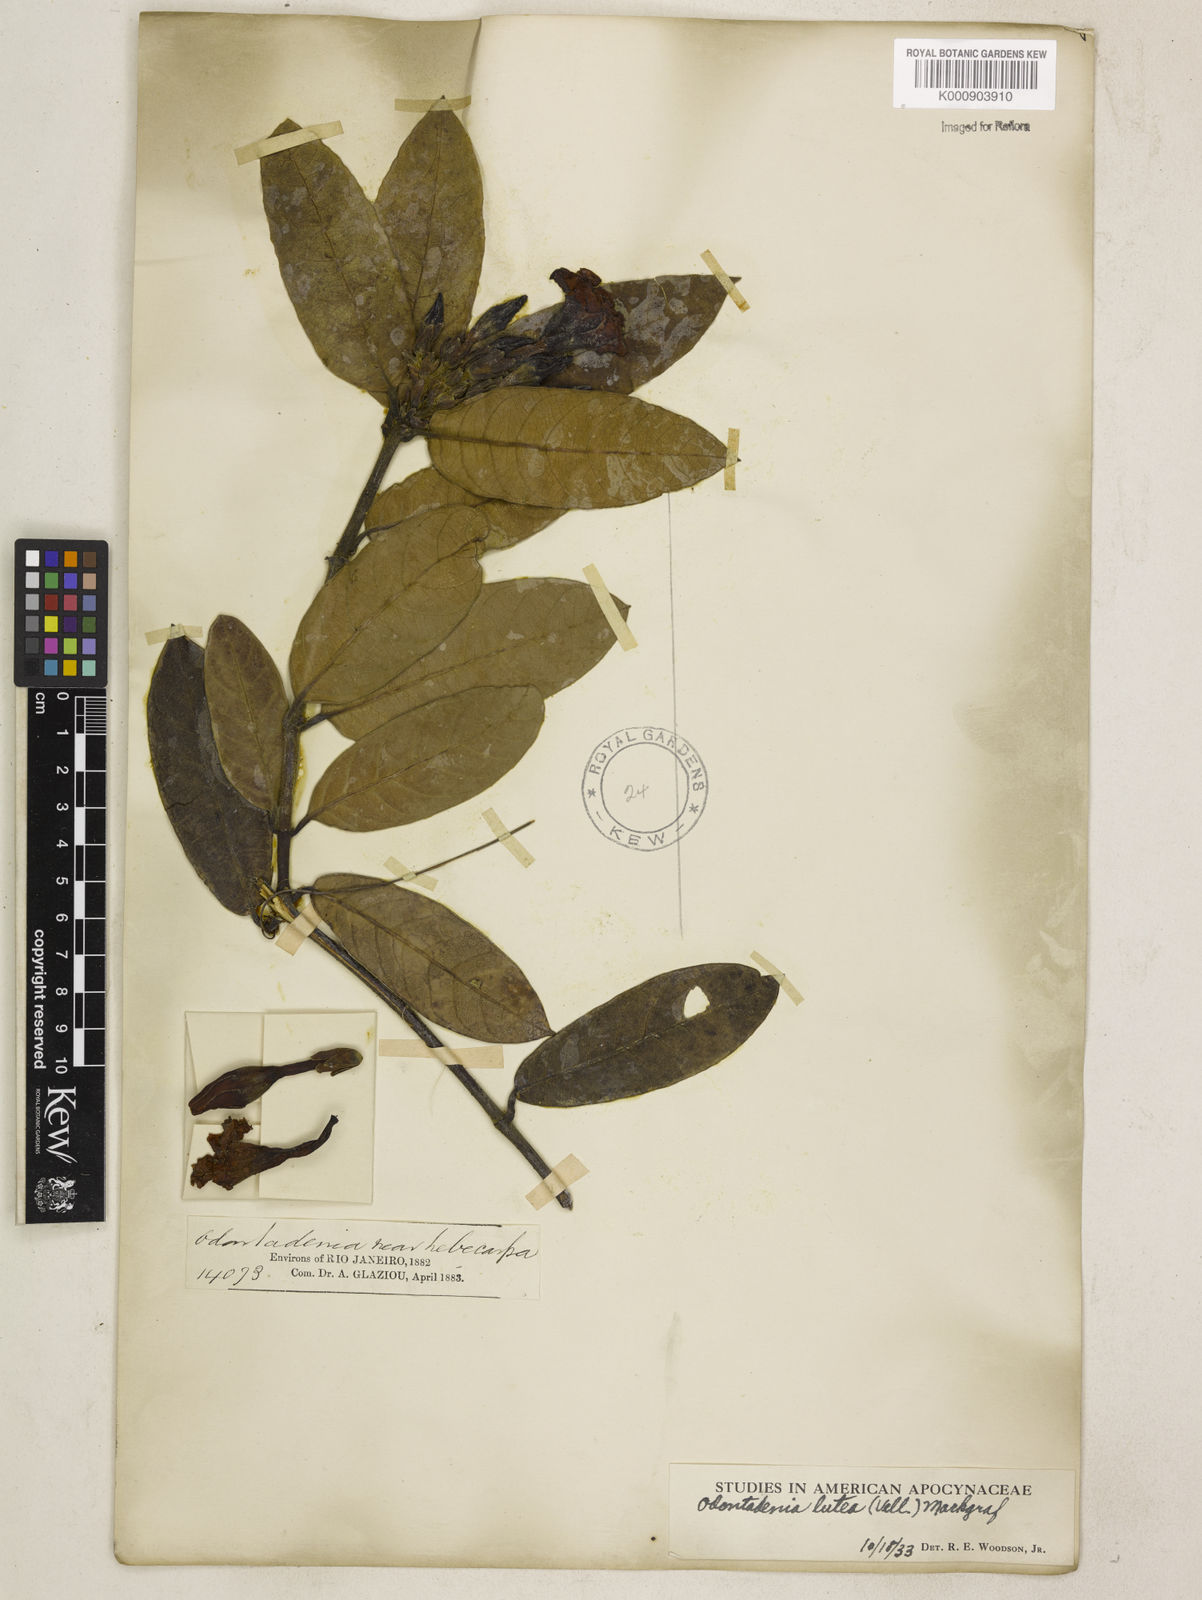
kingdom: Plantae
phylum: Tracheophyta
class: Magnoliopsida
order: Gentianales
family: Apocynaceae
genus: Odontadenia
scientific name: Odontadenia lutea
